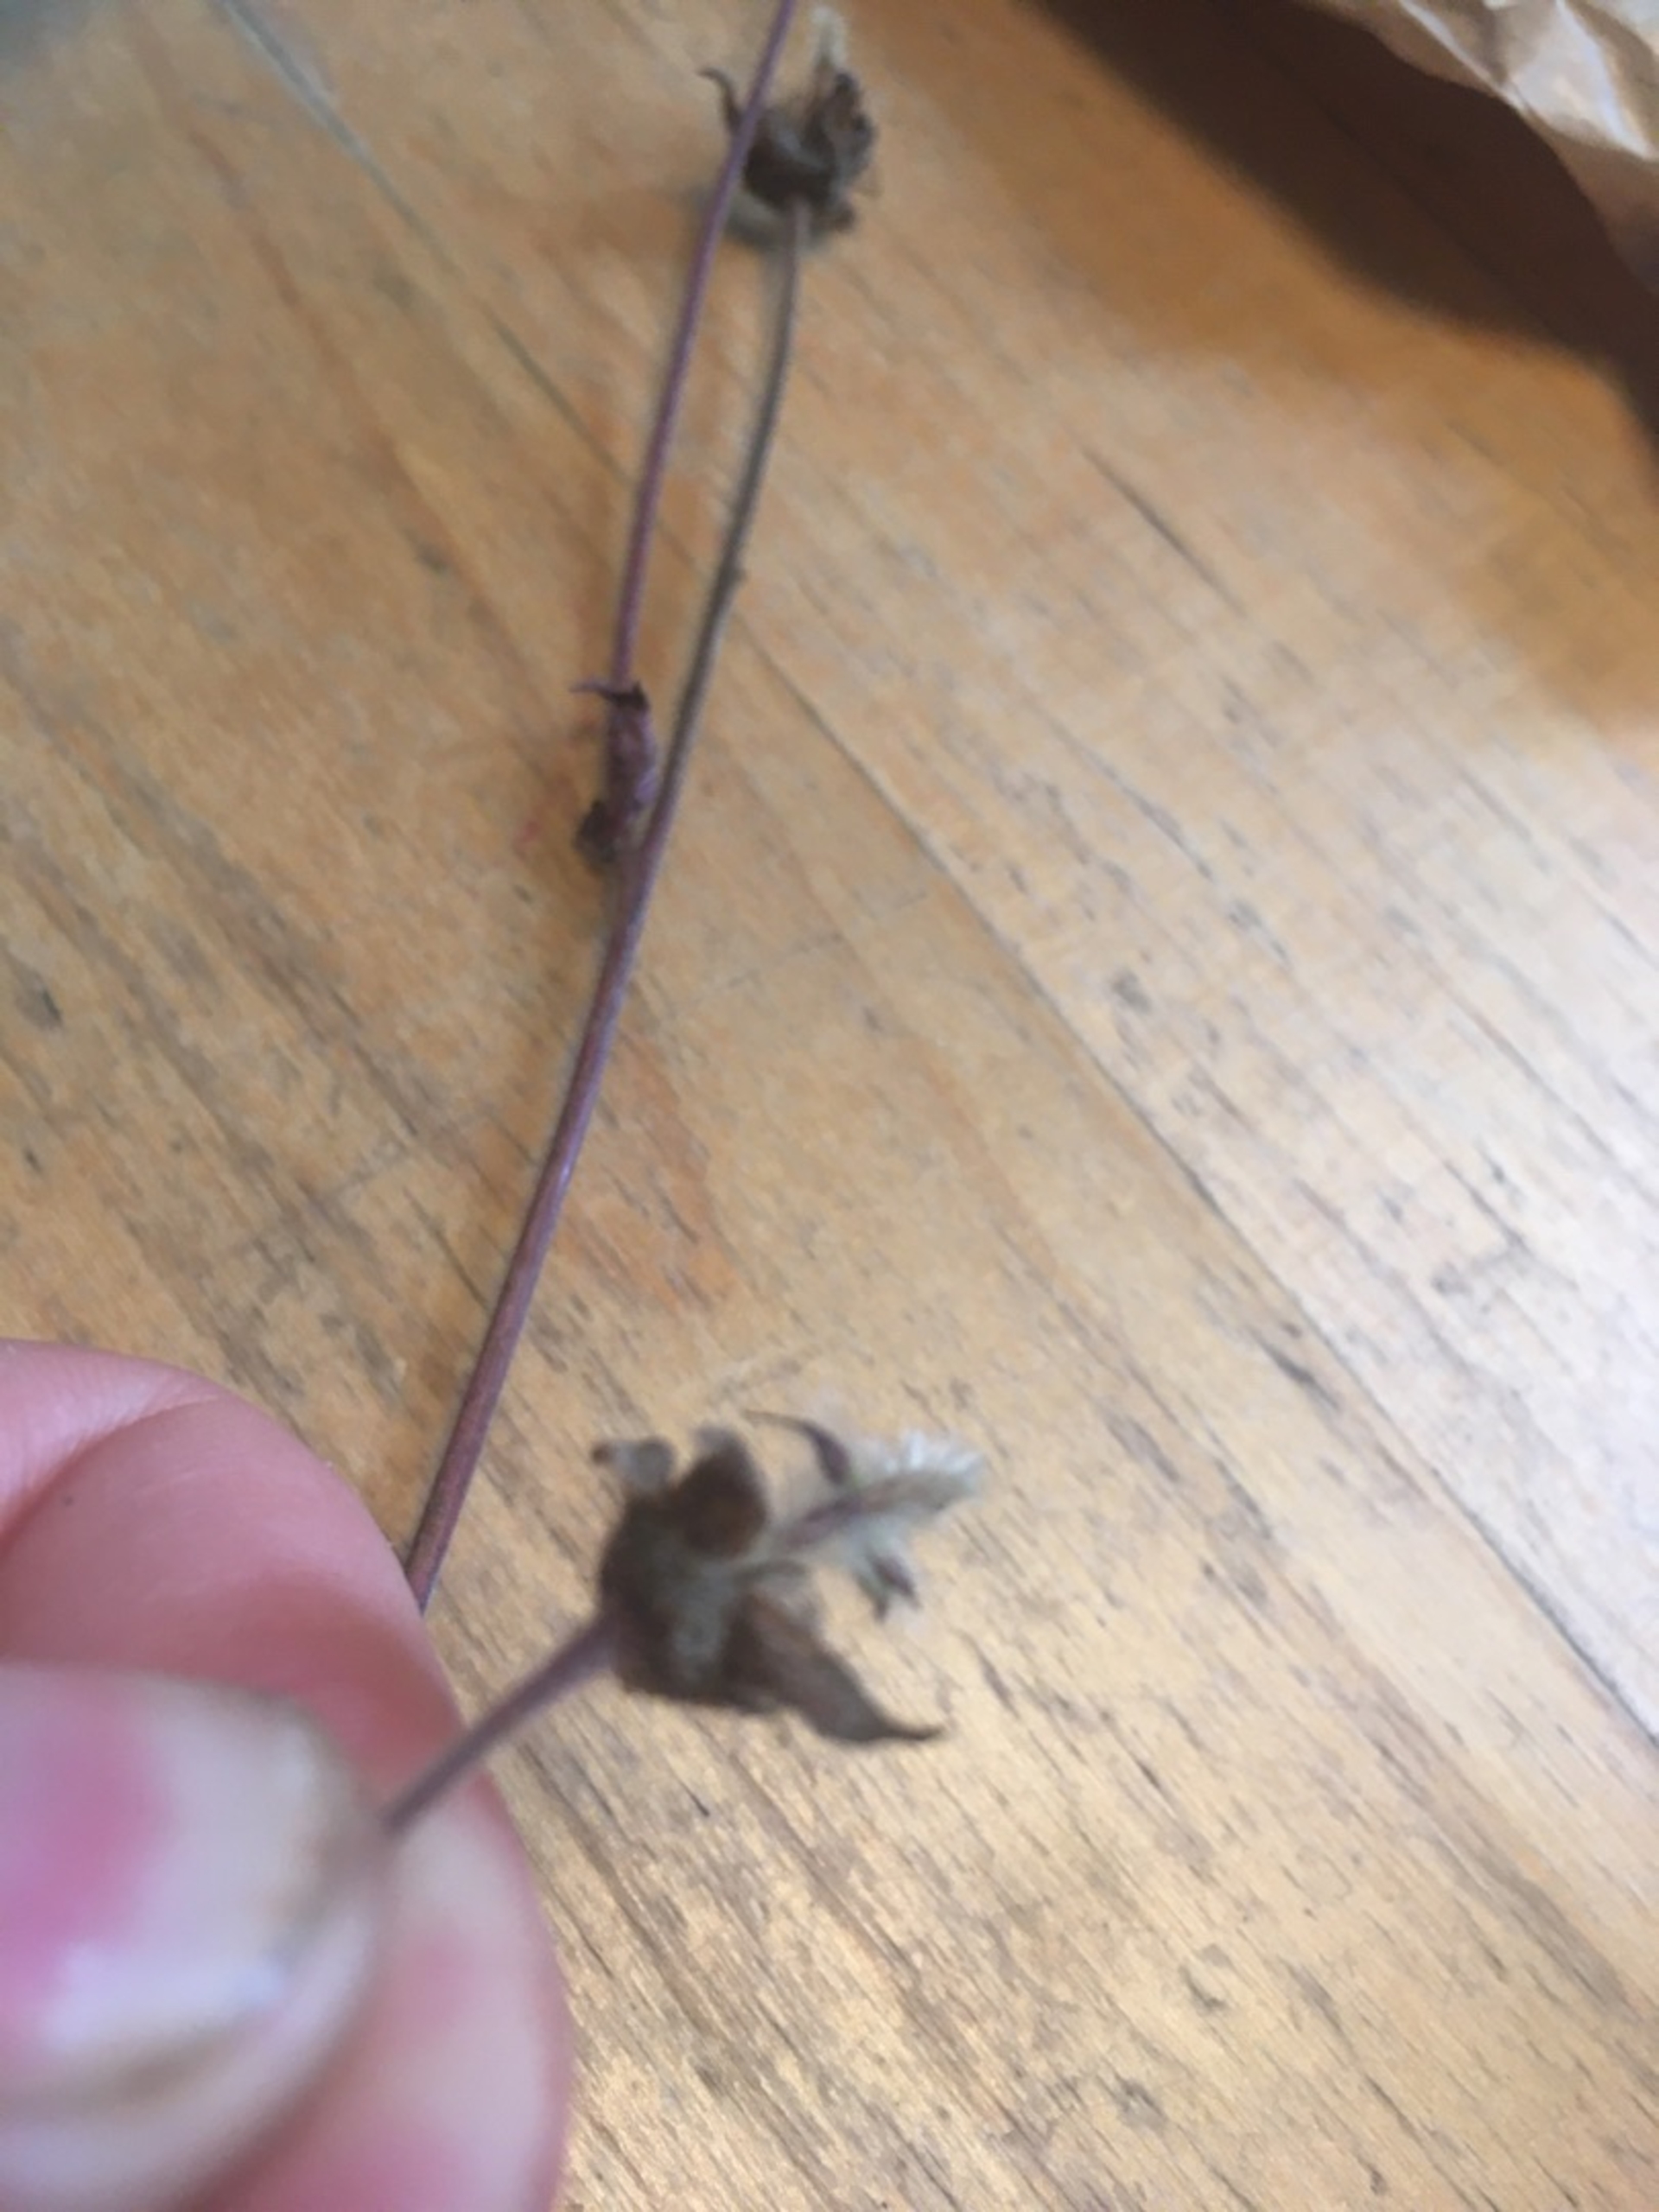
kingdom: Plantae
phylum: Tracheophyta
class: Magnoliopsida
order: Rosales
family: Rosaceae
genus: Geum
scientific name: Geum rivale
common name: Eng-nellikerod
